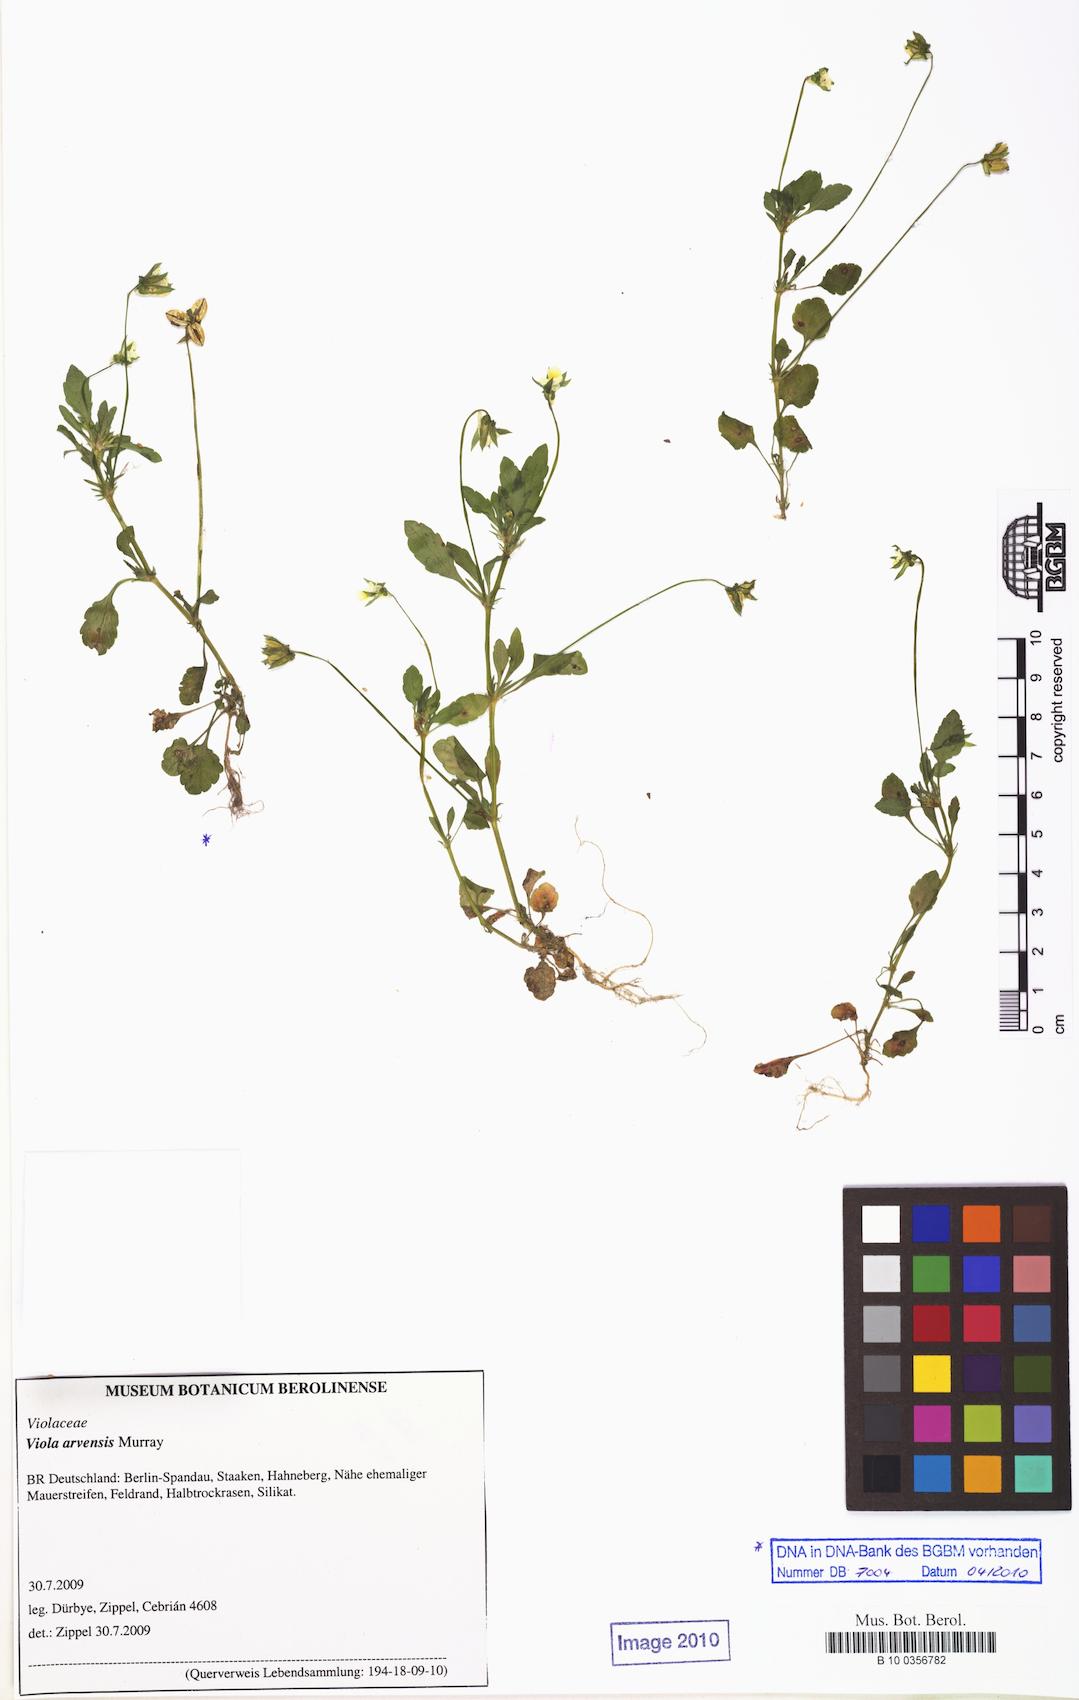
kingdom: Plantae
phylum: Tracheophyta
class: Magnoliopsida
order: Malpighiales
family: Violaceae
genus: Viola
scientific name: Viola arvensis
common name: Field pansy
